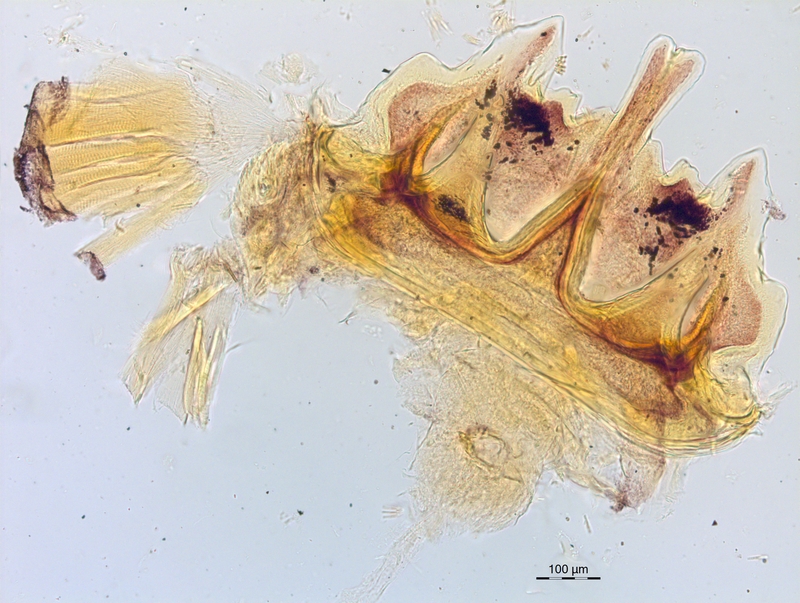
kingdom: Animalia
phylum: Arthropoda
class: Diplopoda
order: Chordeumatida
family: Craspedosomatidae
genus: Craspedosoma
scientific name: Craspedosoma rawlinsii
